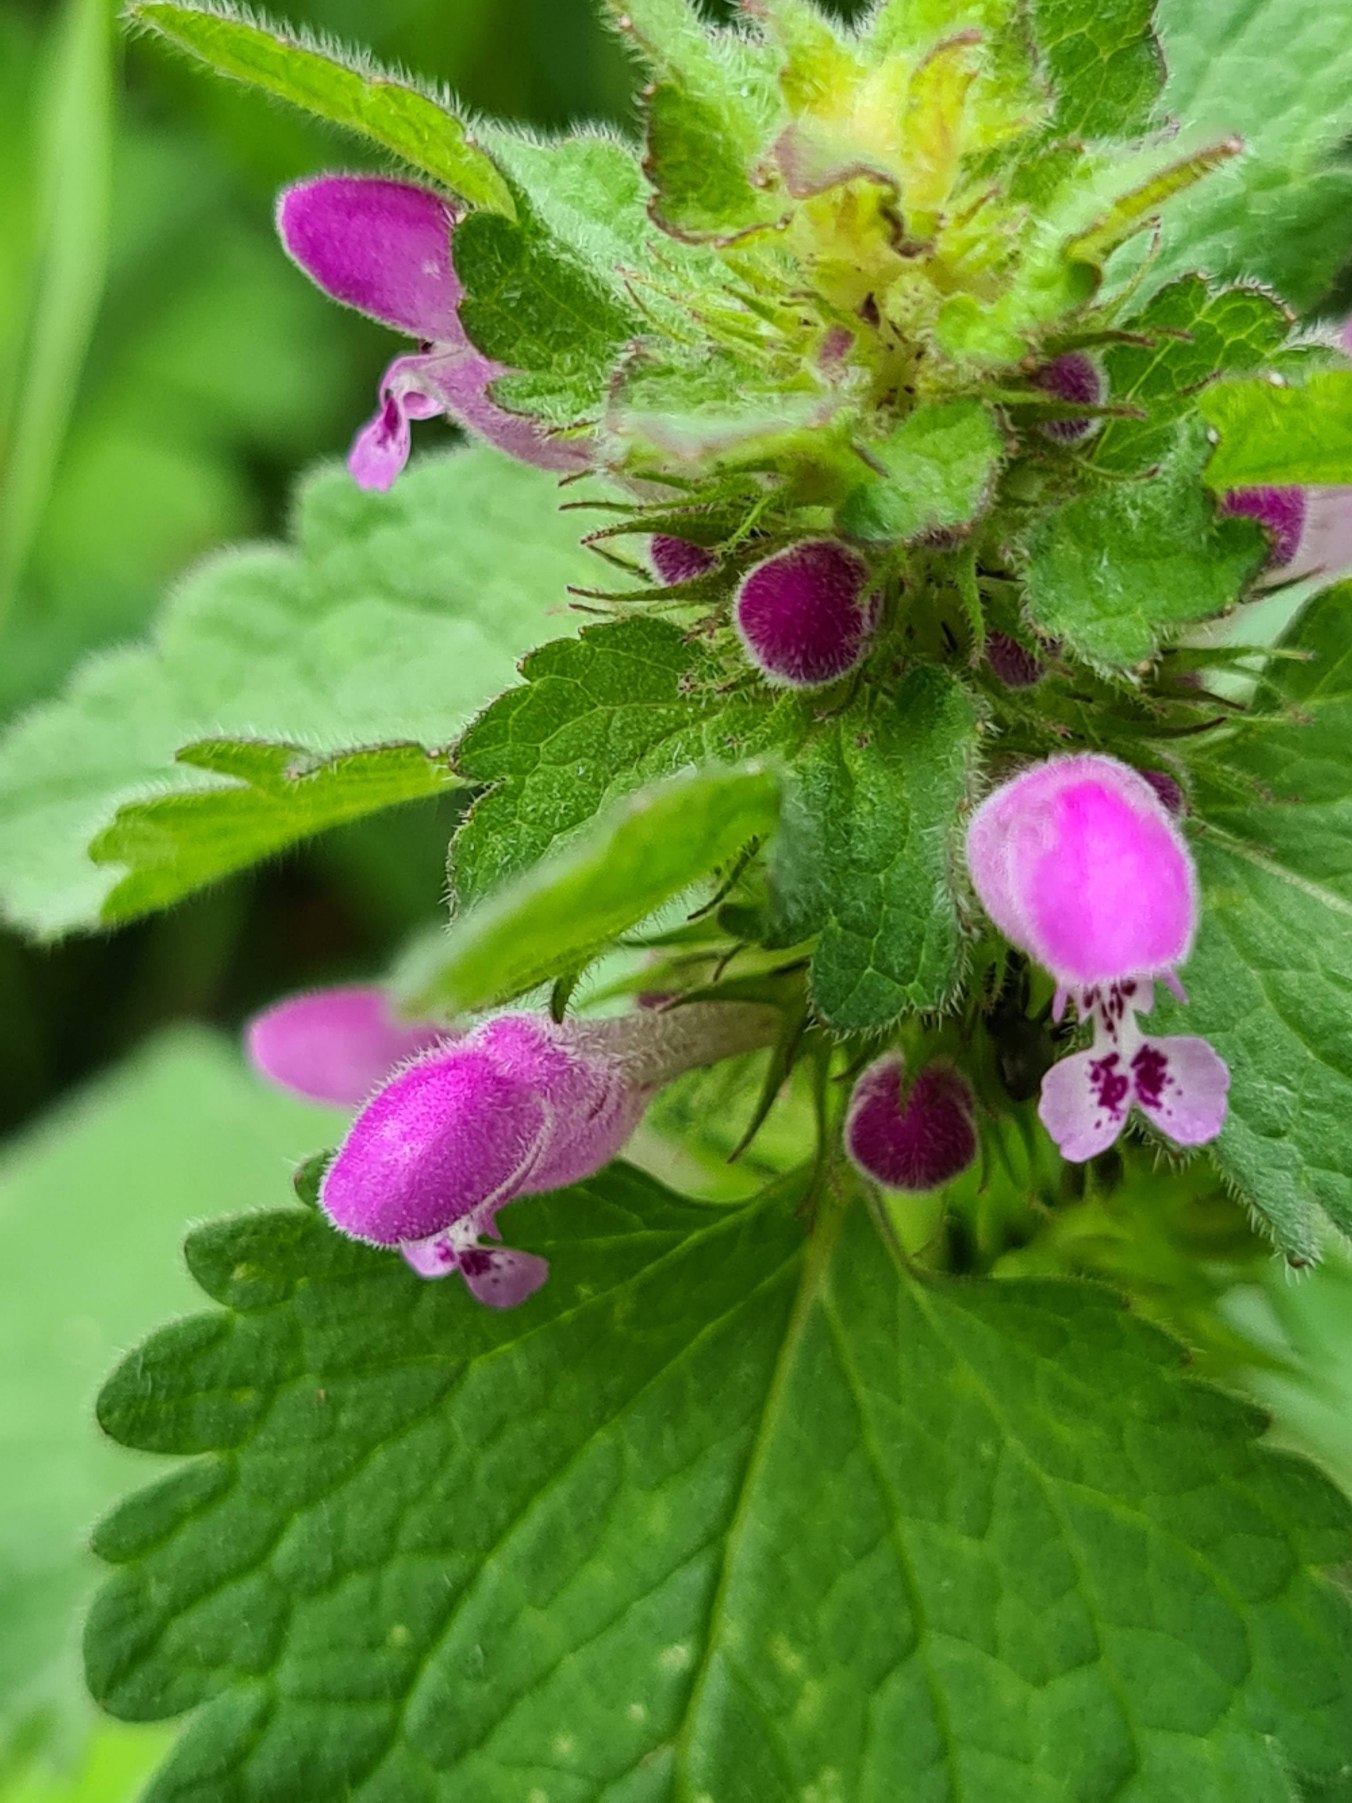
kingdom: Plantae
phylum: Tracheophyta
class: Magnoliopsida
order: Lamiales
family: Lamiaceae
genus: Lamium
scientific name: Lamium purpureum
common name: Rød tvetand
